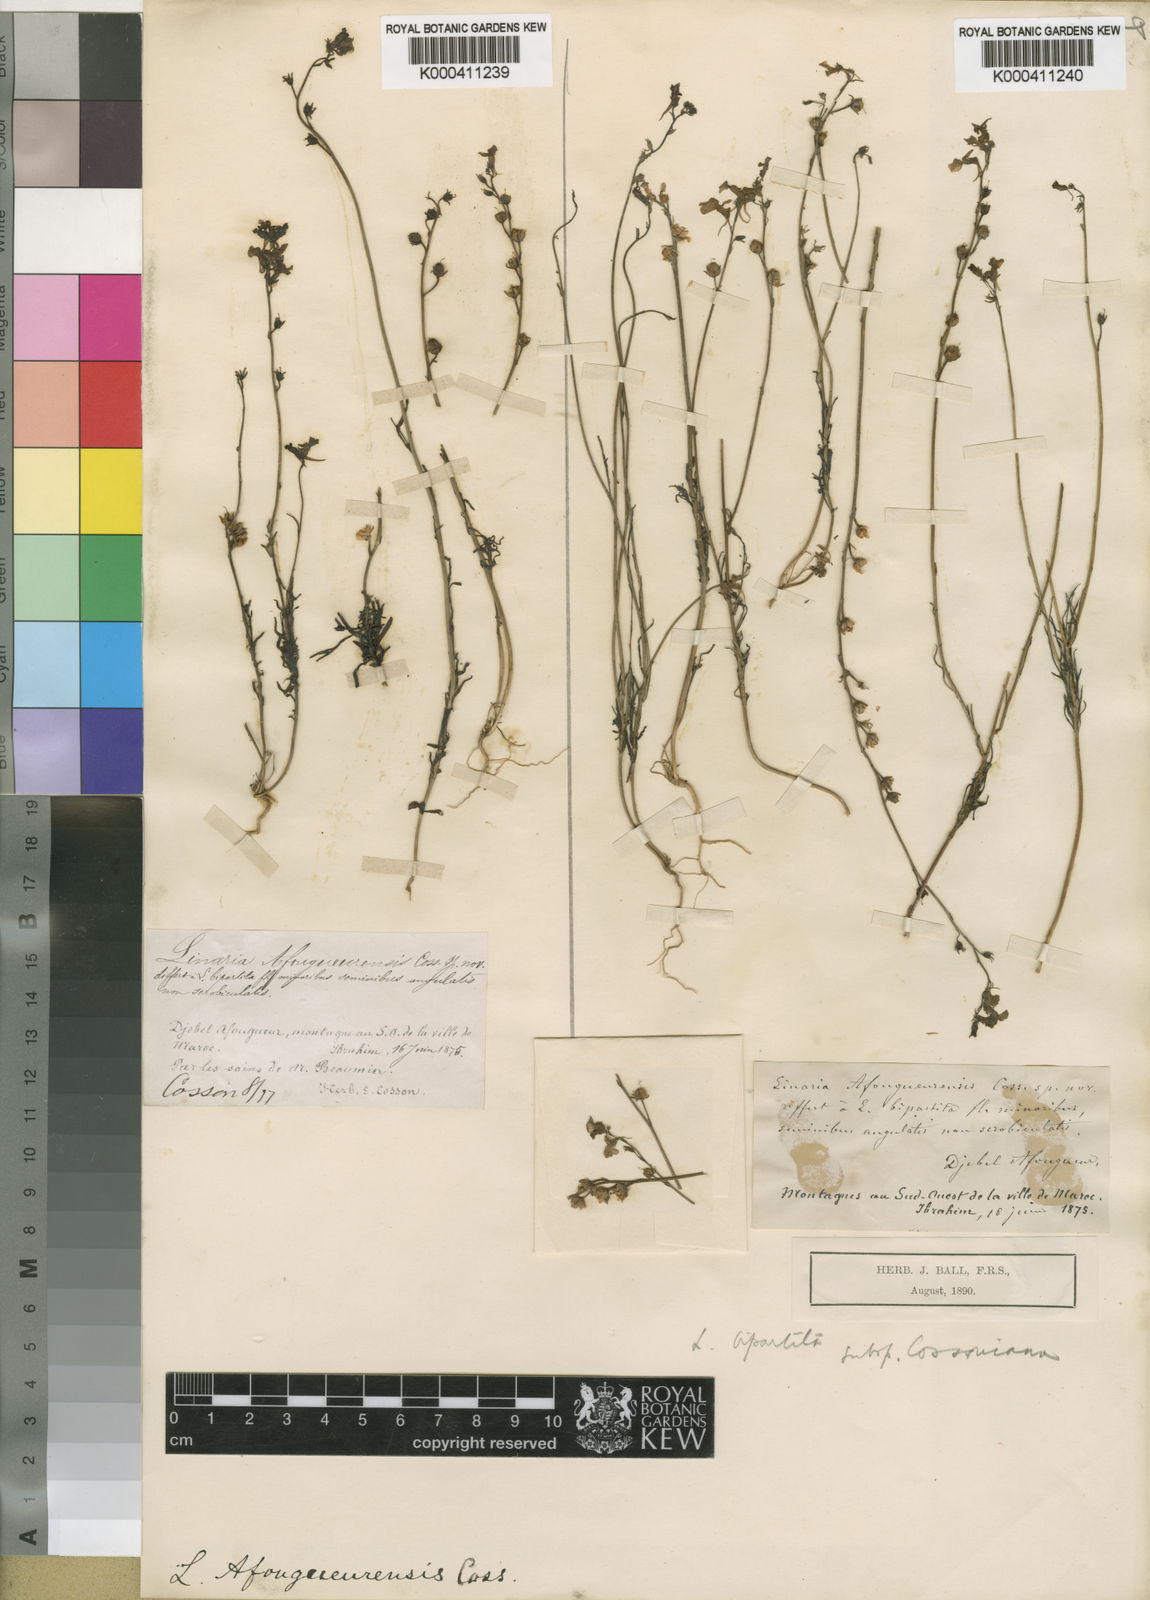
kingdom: Plantae
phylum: Tracheophyta
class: Magnoliopsida
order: Lamiales
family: Plantaginaceae
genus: Linaria
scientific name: Linaria bipartita
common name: Clovenlip toadflax
